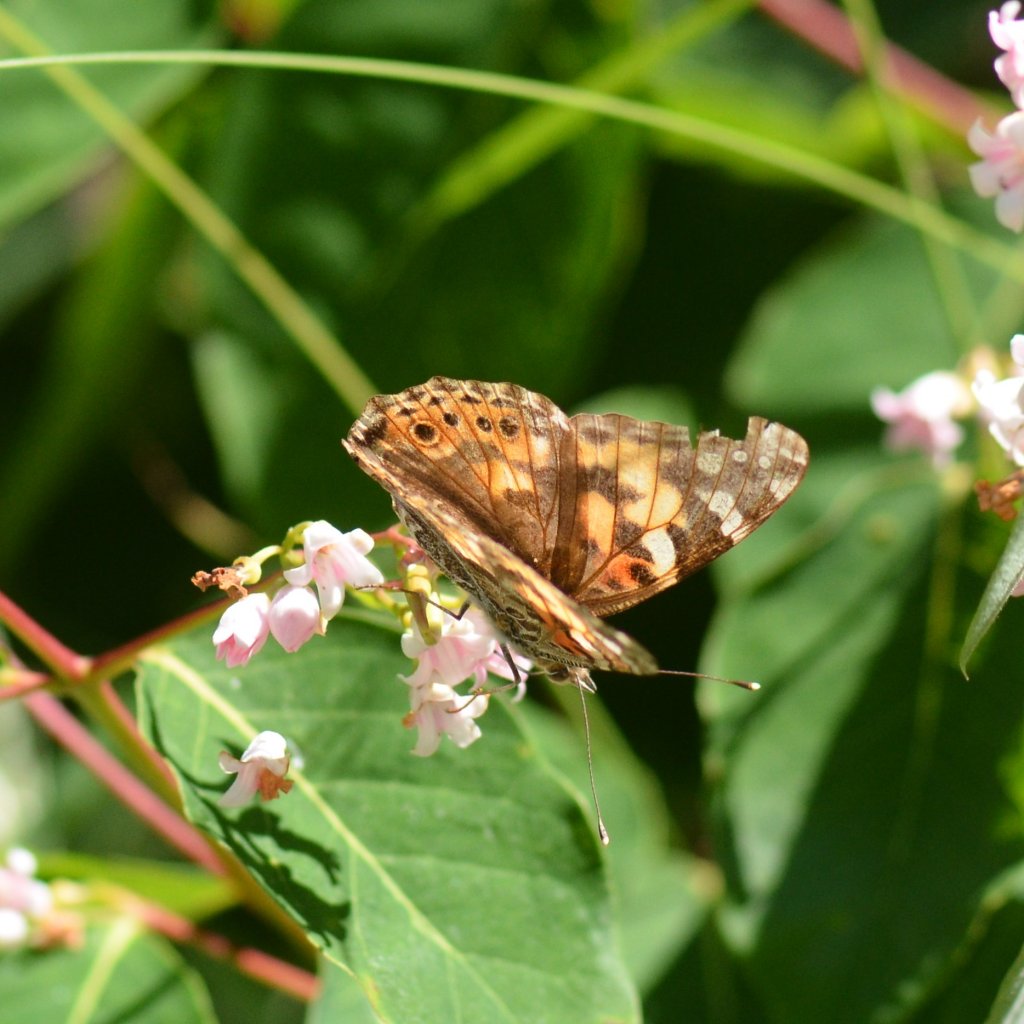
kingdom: Animalia
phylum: Arthropoda
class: Insecta
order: Lepidoptera
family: Nymphalidae
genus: Vanessa
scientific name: Vanessa cardui
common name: Painted Lady
